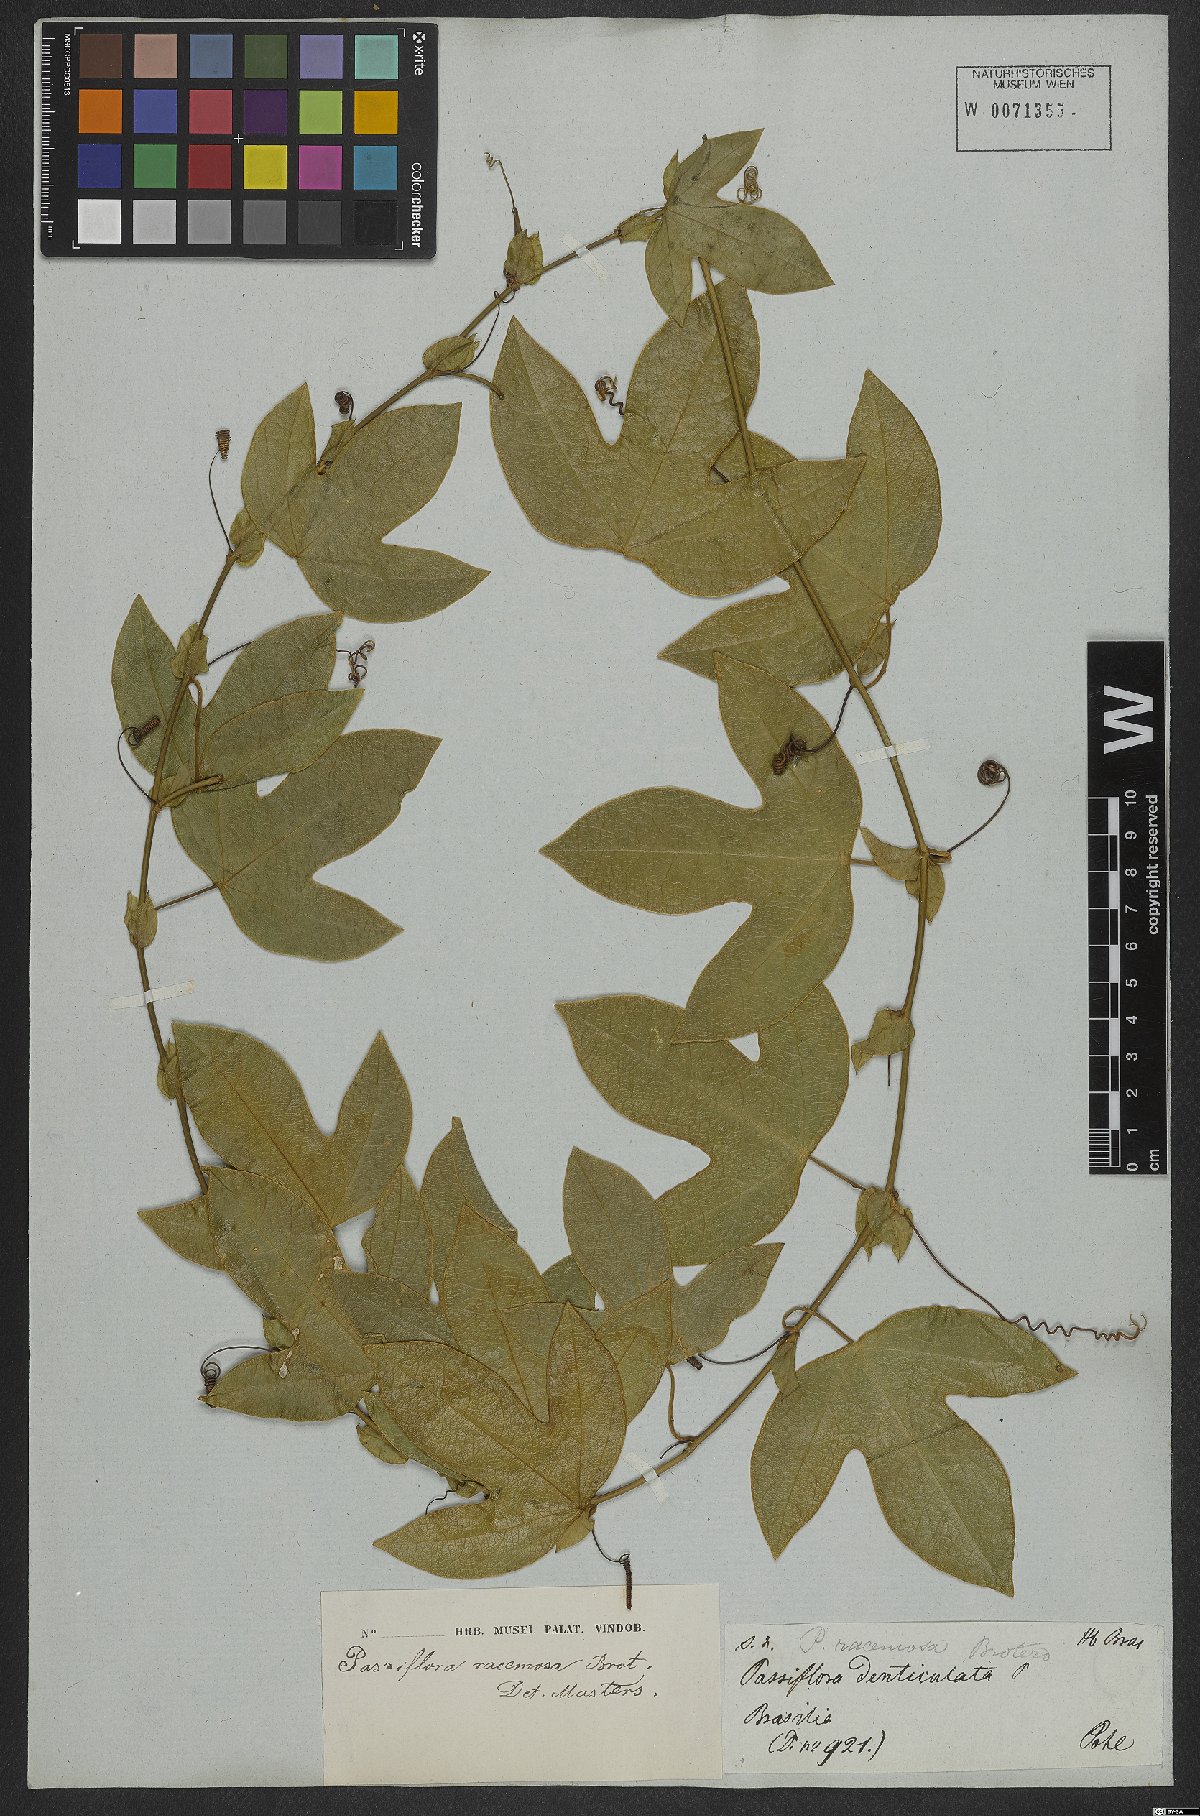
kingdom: Plantae
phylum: Tracheophyta
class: Magnoliopsida
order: Malpighiales
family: Passifloraceae
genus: Passiflora
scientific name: Passiflora racemosa
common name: Red passionflower
